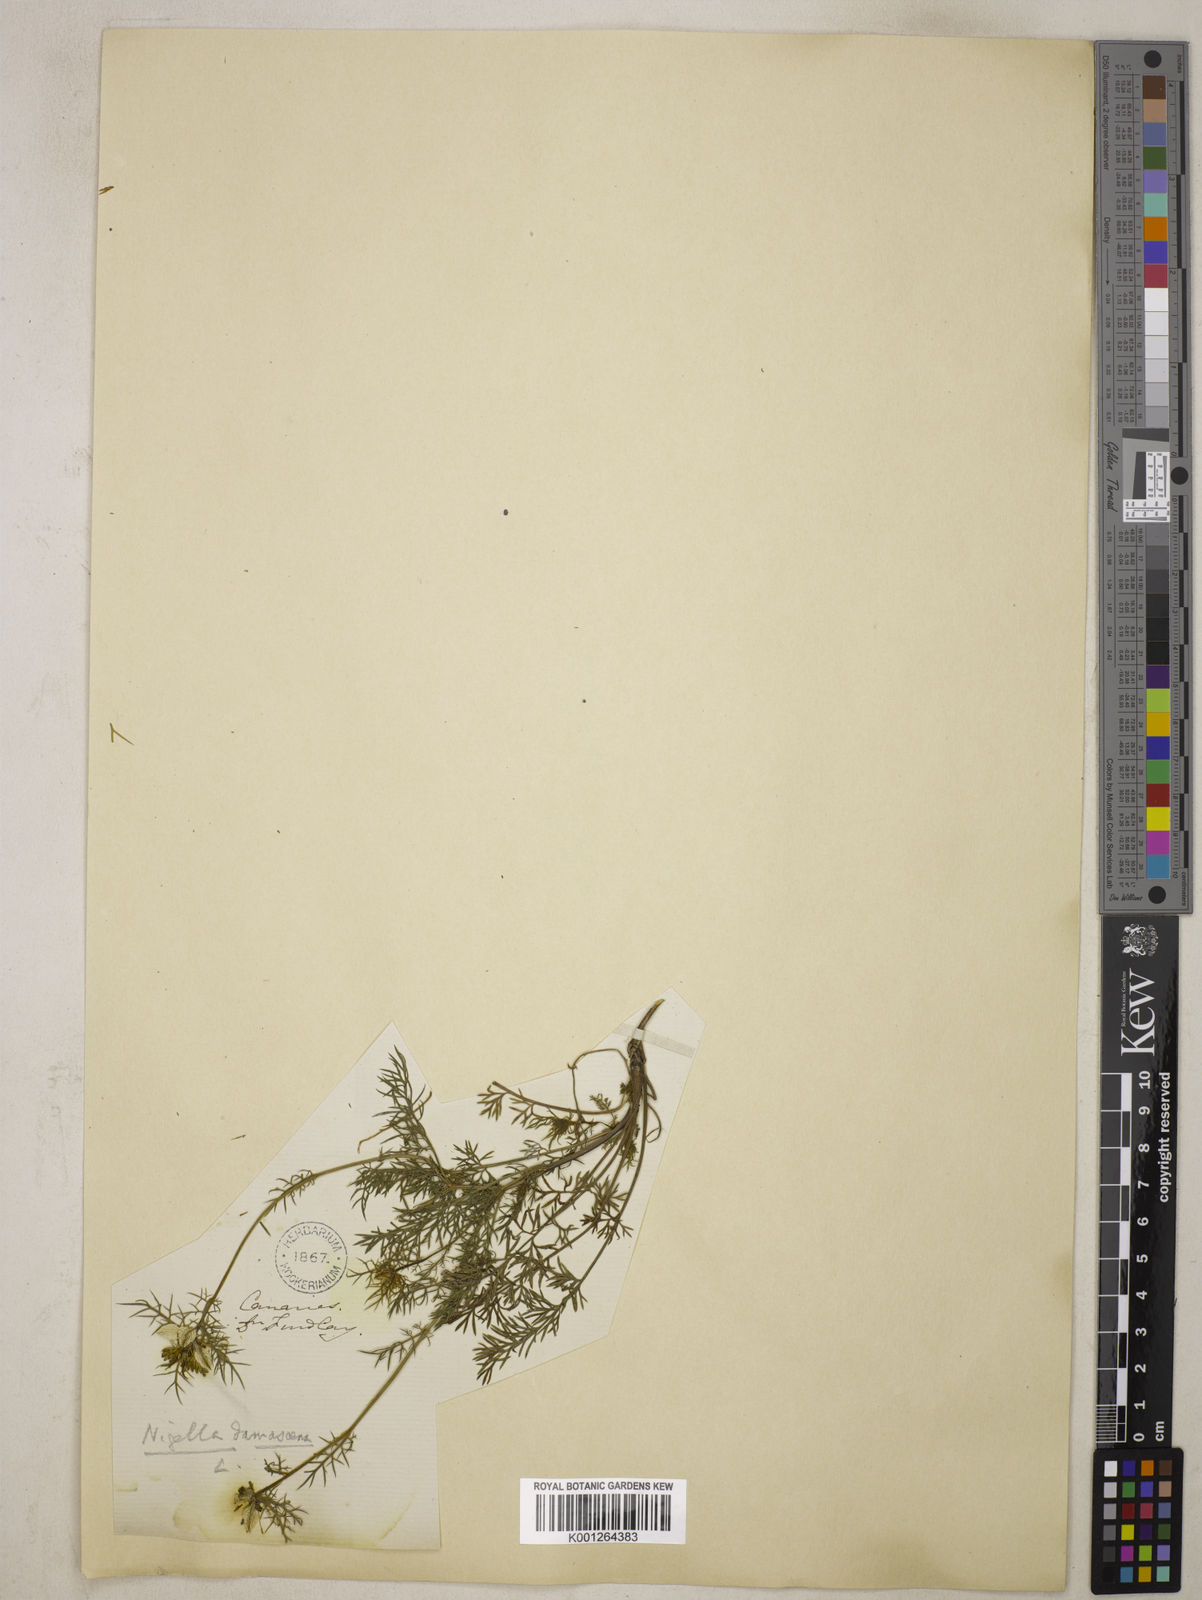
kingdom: Plantae
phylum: Tracheophyta
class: Magnoliopsida
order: Ranunculales
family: Ranunculaceae
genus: Nigella
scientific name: Nigella damascena
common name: Love-in-a-mist
